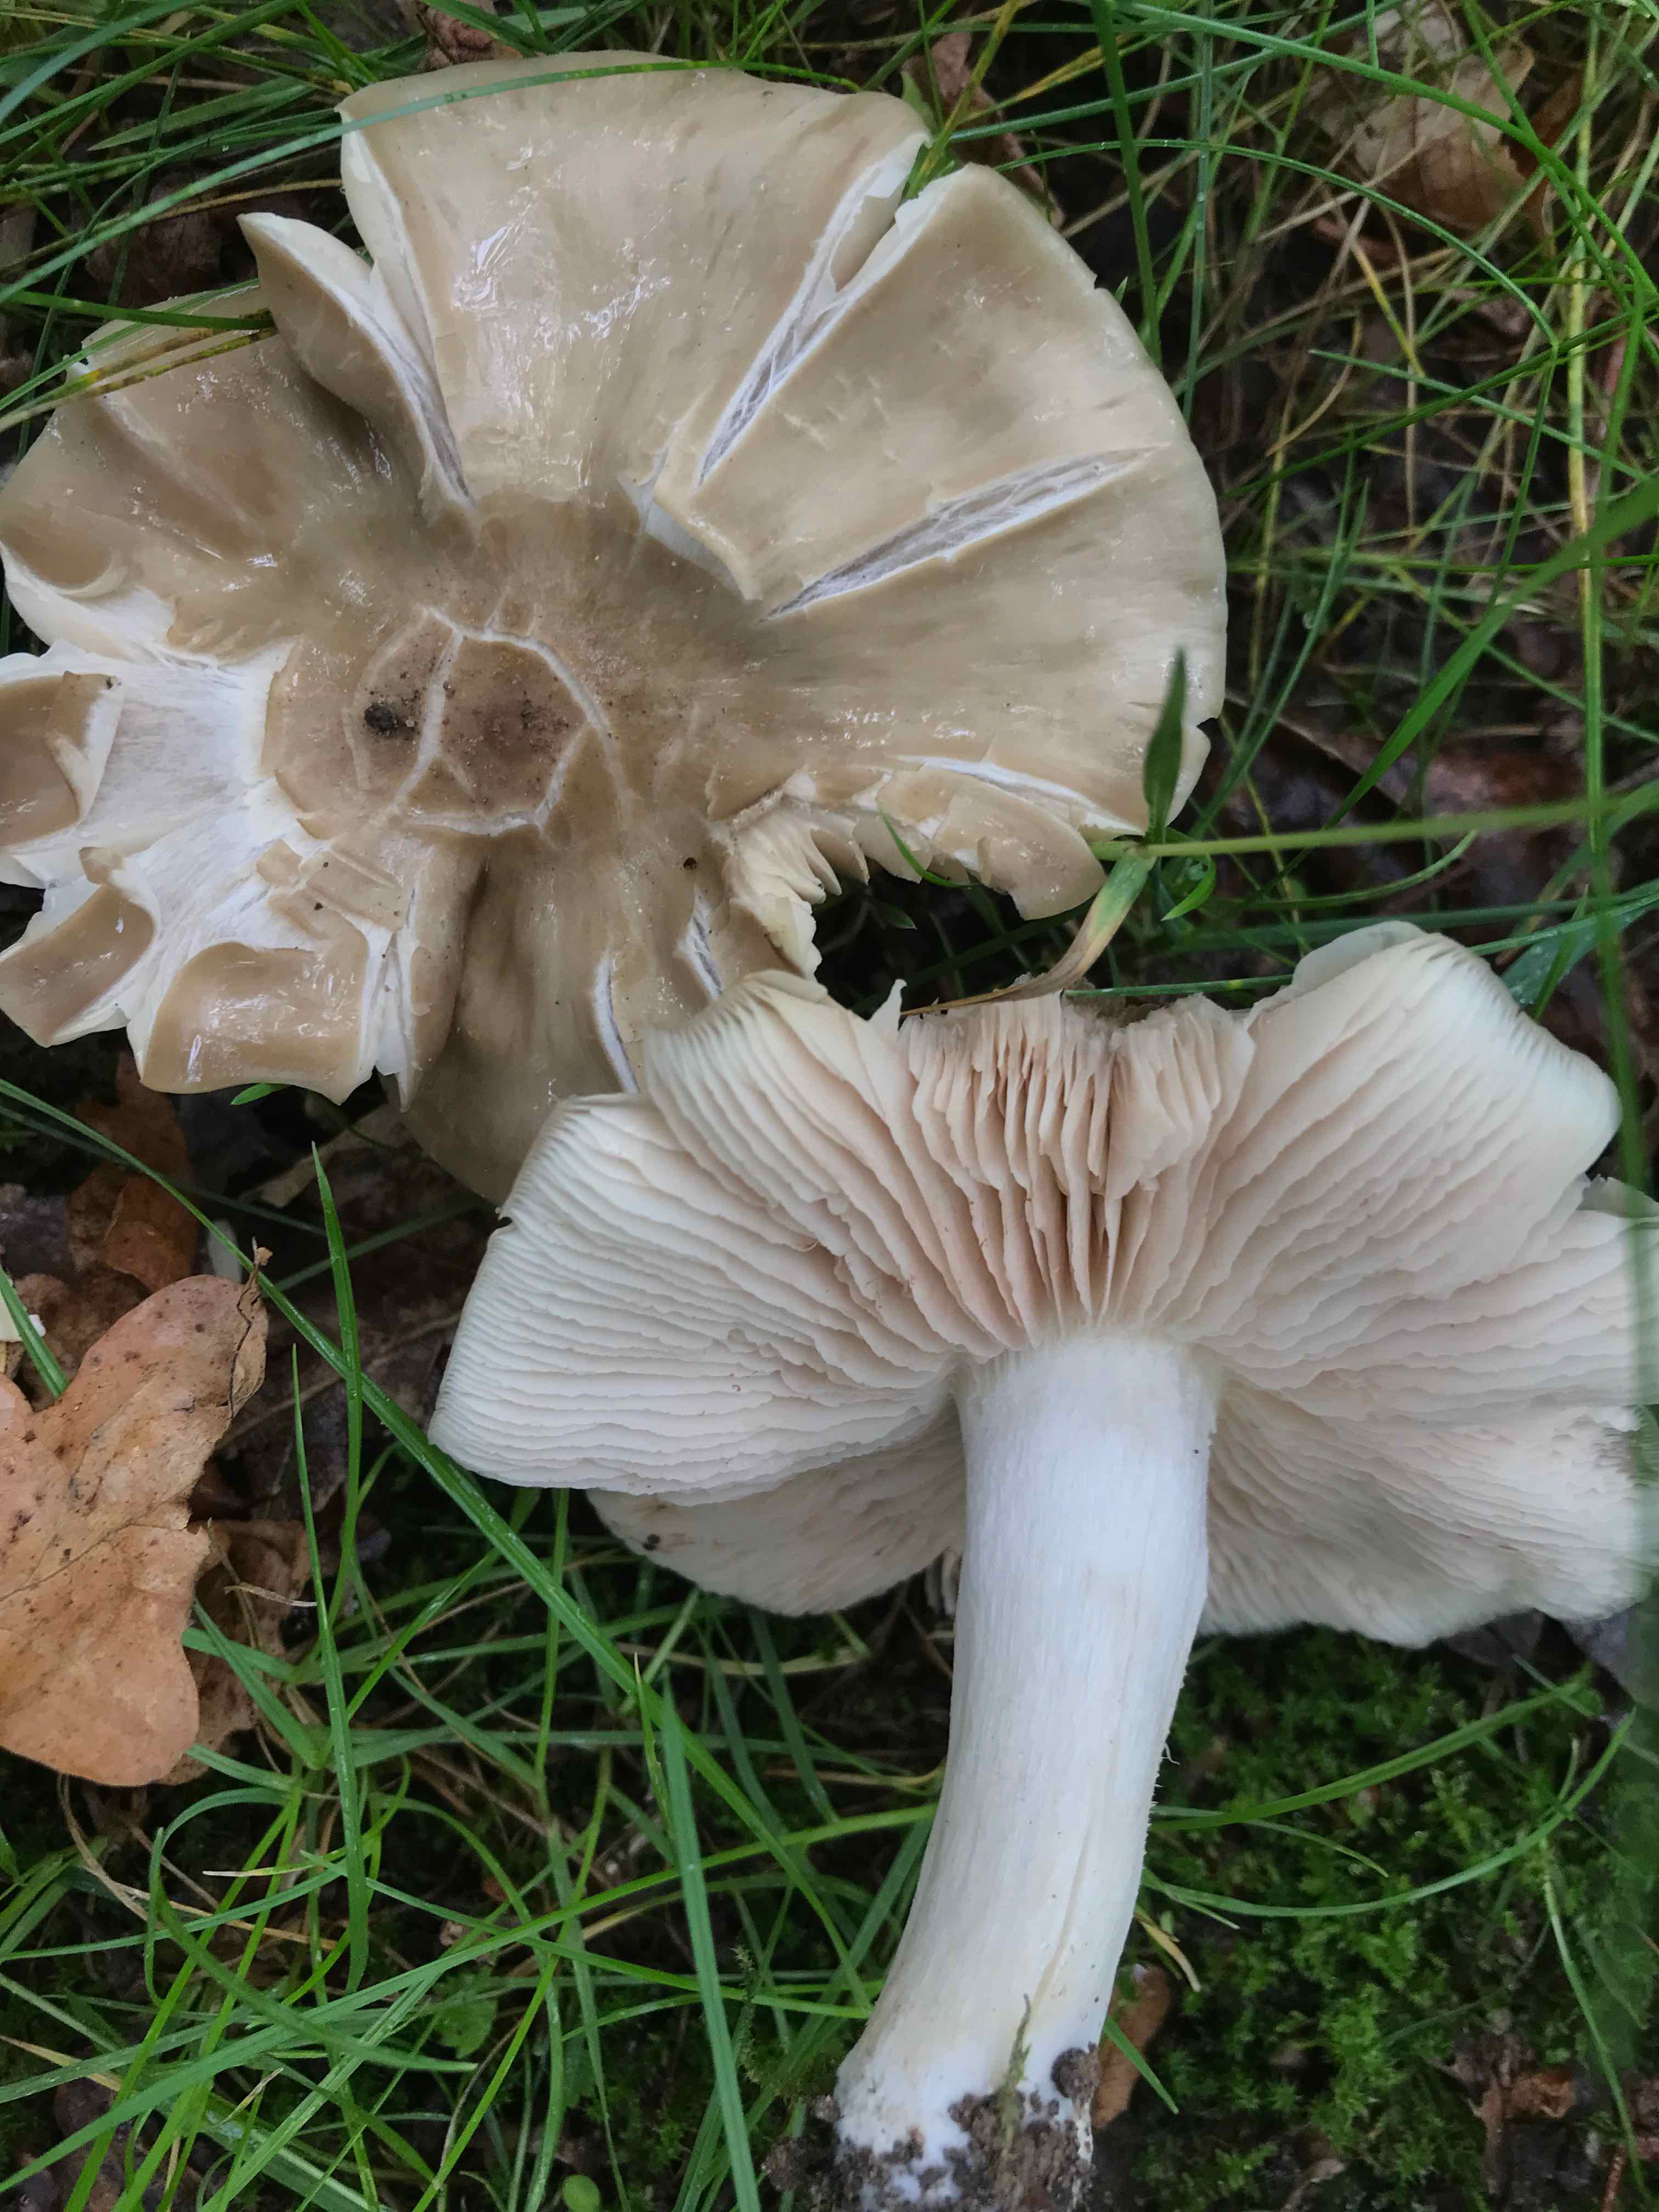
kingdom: Fungi
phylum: Basidiomycota
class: Agaricomycetes
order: Agaricales
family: Entolomataceae
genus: Entoloma
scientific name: Entoloma lividoalbum
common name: lysstokket rødblad
